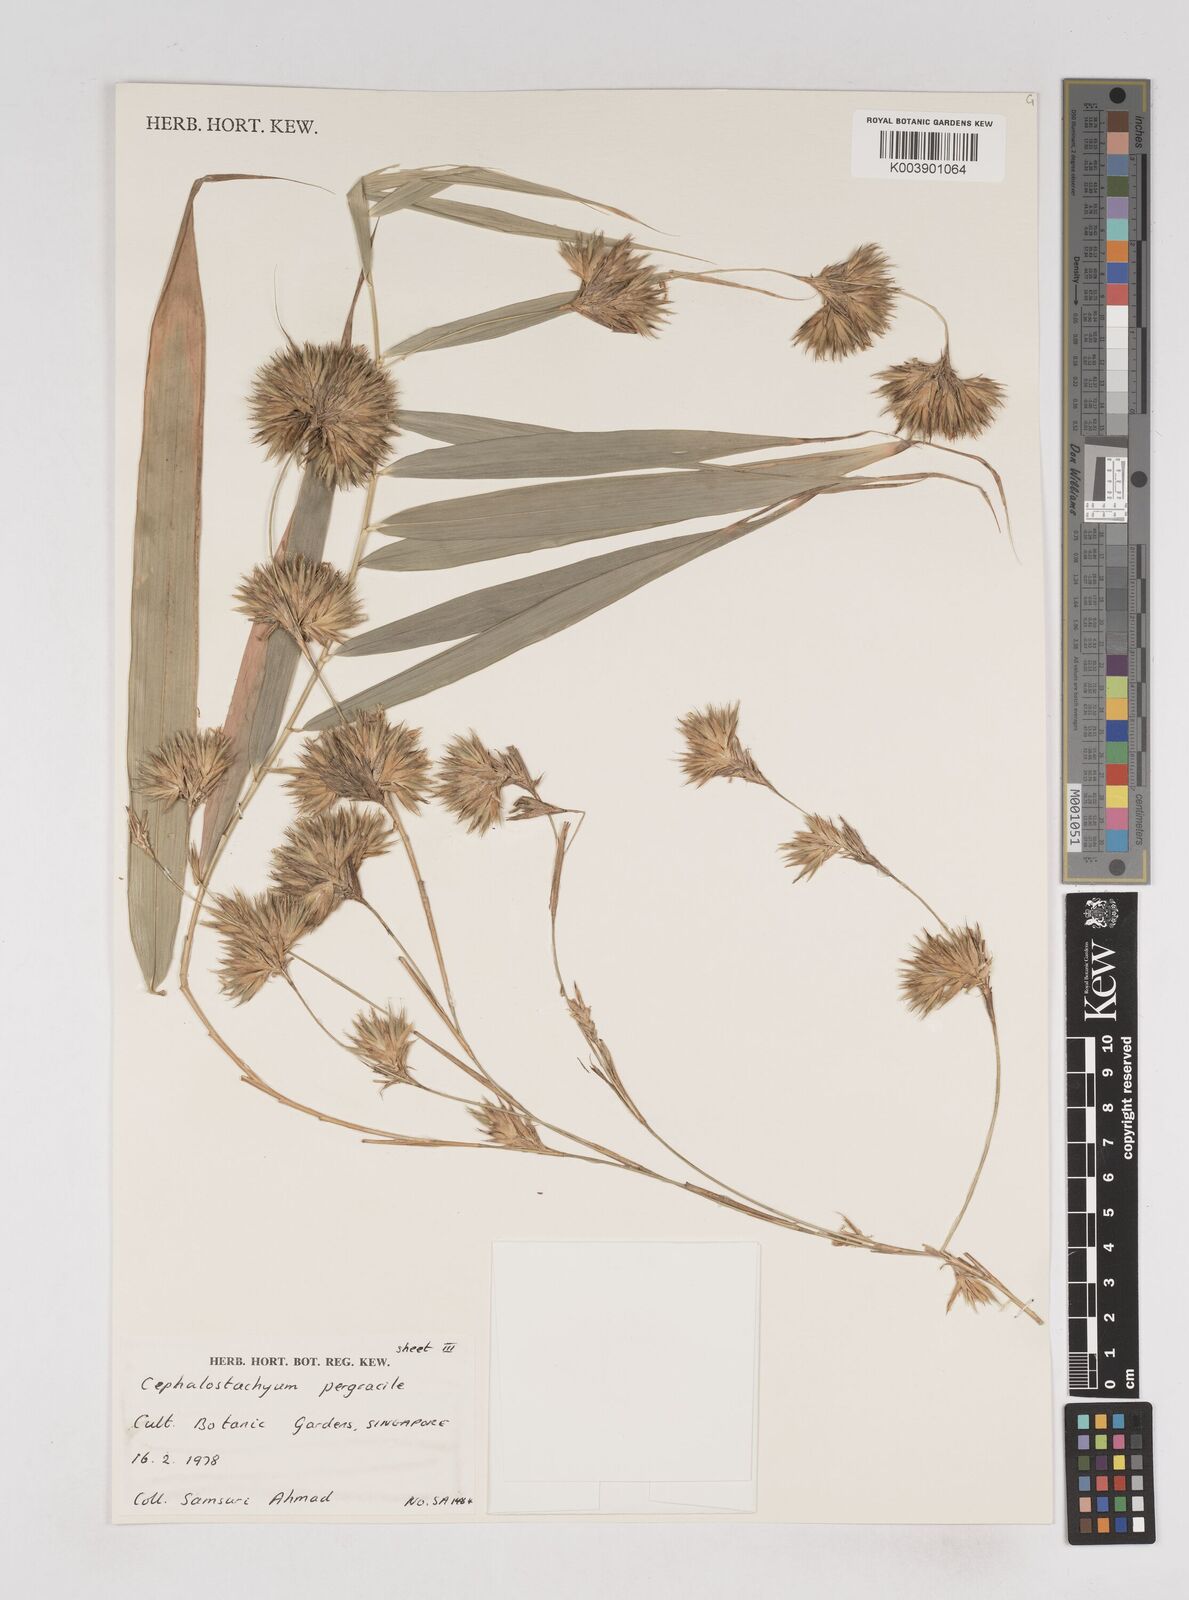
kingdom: Plantae
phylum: Tracheophyta
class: Liliopsida
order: Poales
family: Poaceae
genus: Schizostachyum
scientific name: Schizostachyum pergracile
